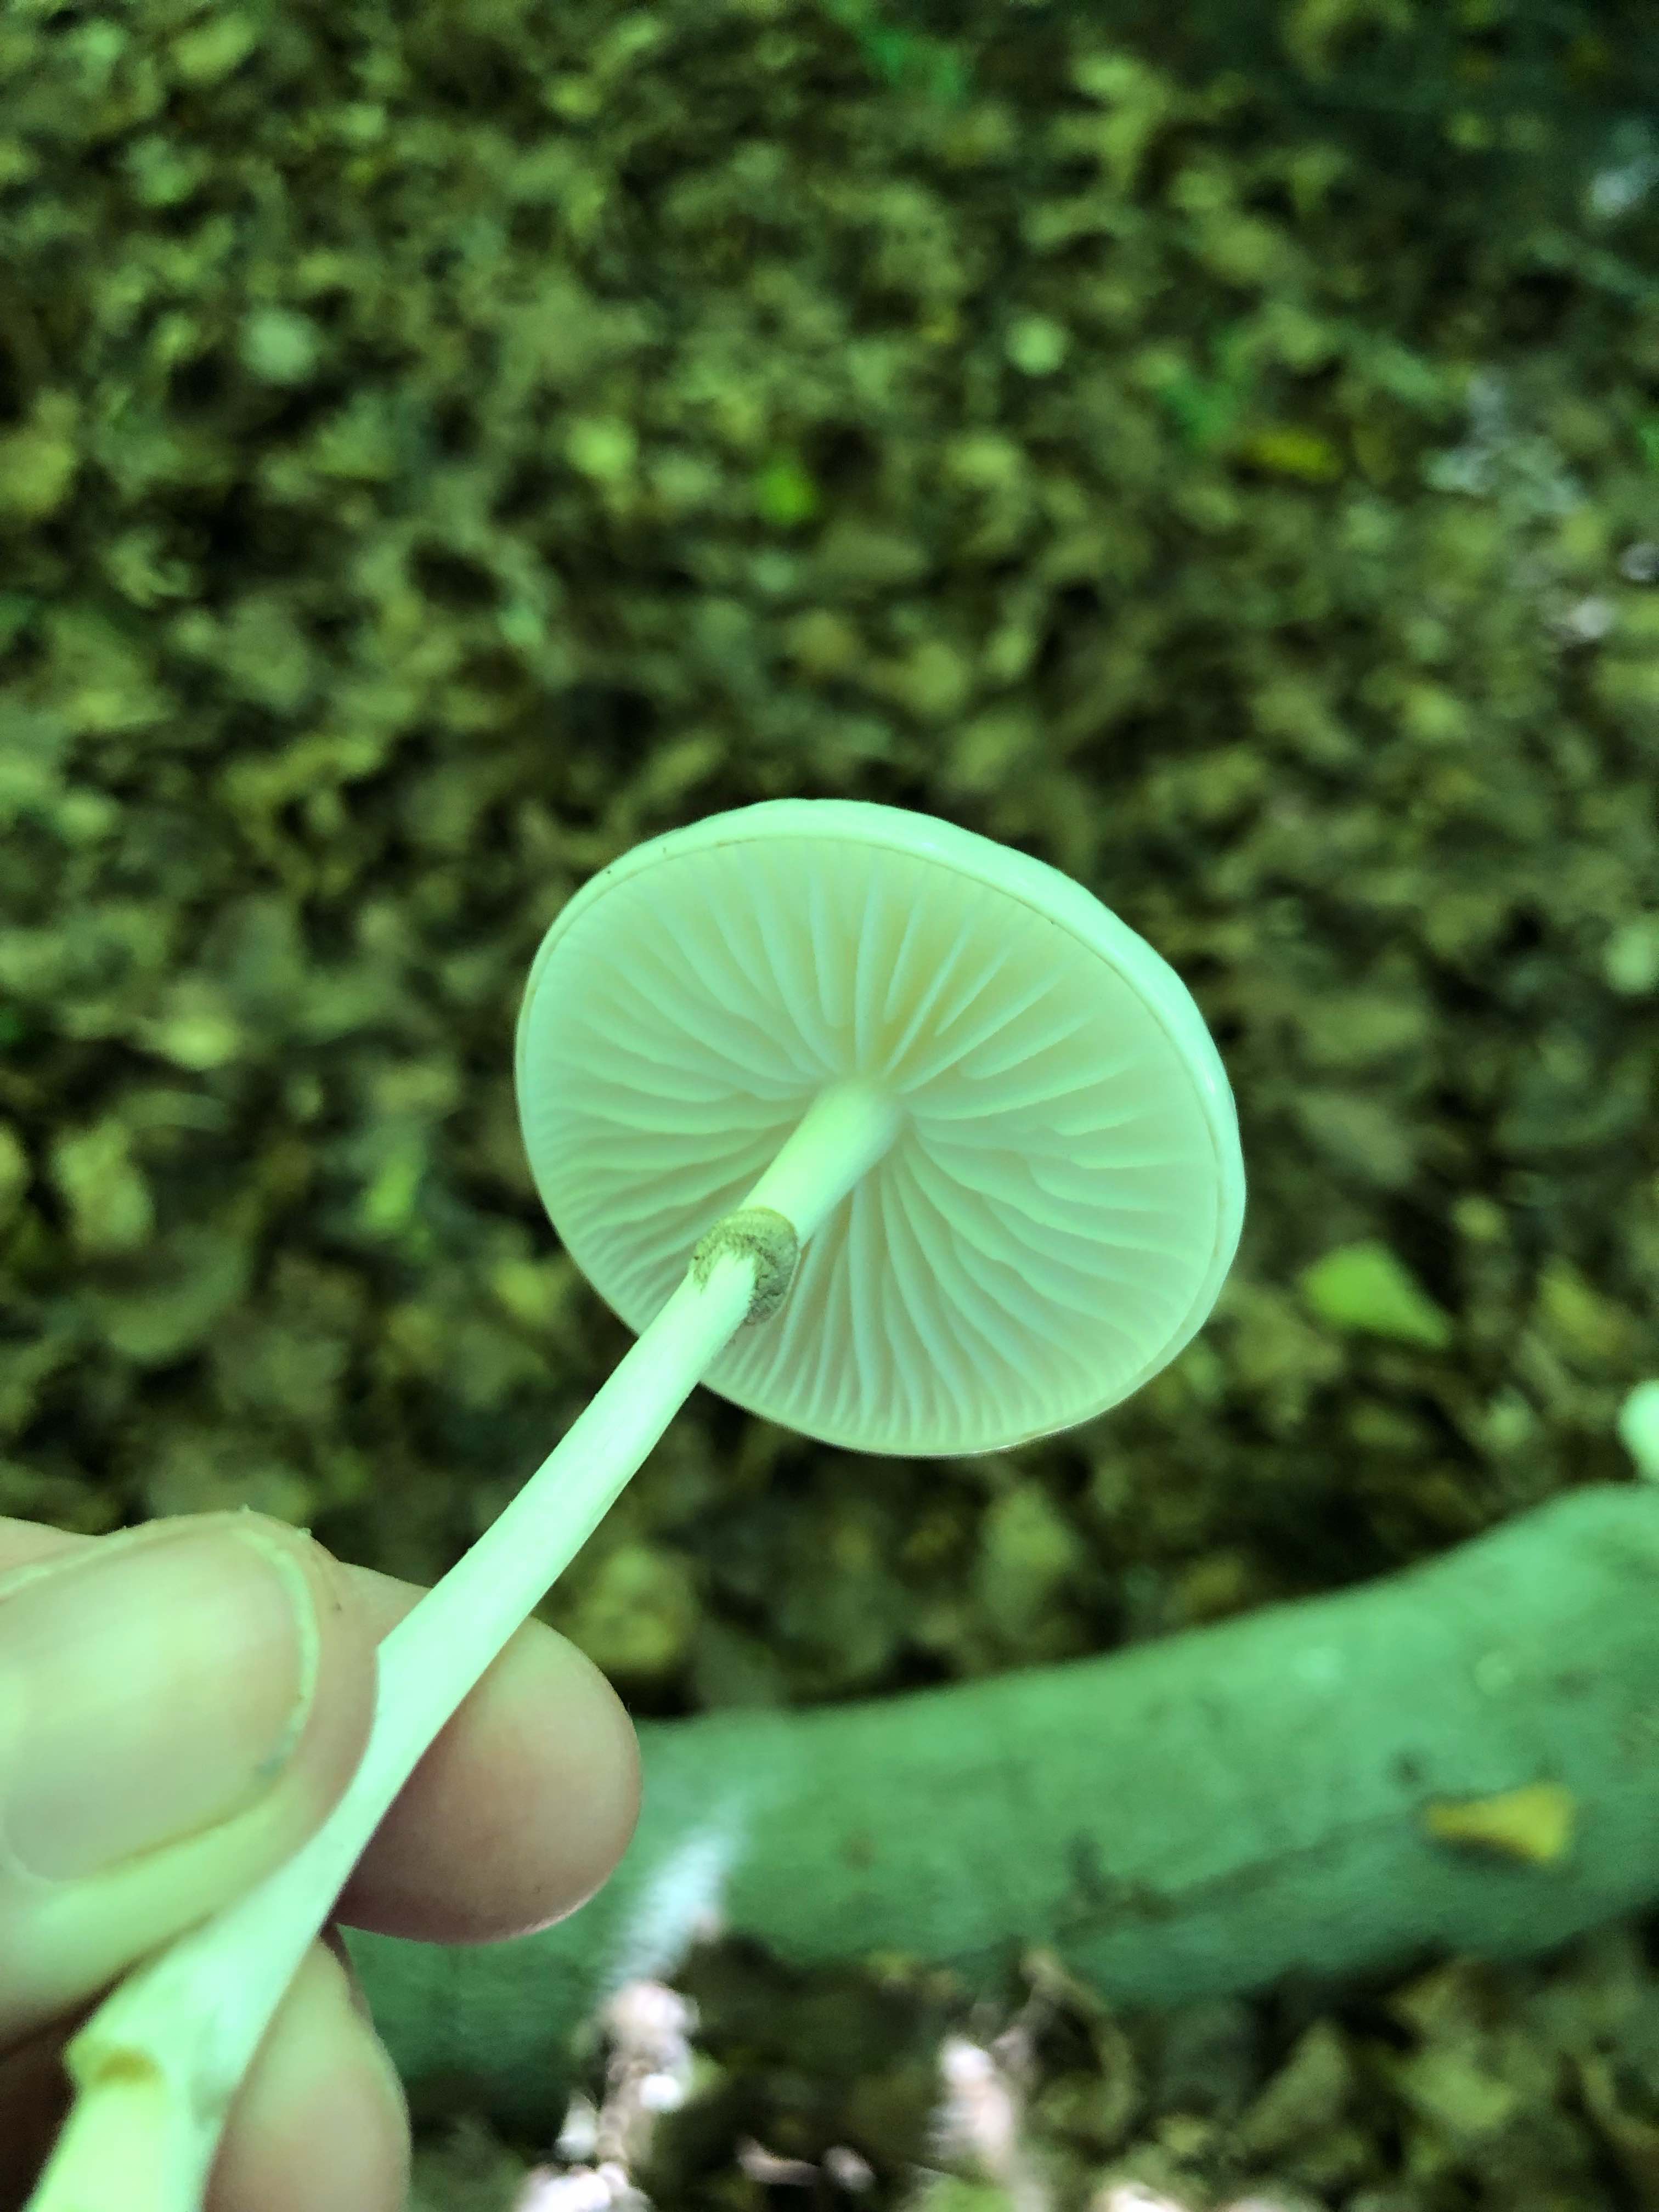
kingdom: Fungi
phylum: Basidiomycota
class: Agaricomycetes
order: Agaricales
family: Physalacriaceae
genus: Mucidula
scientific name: Mucidula mucida
